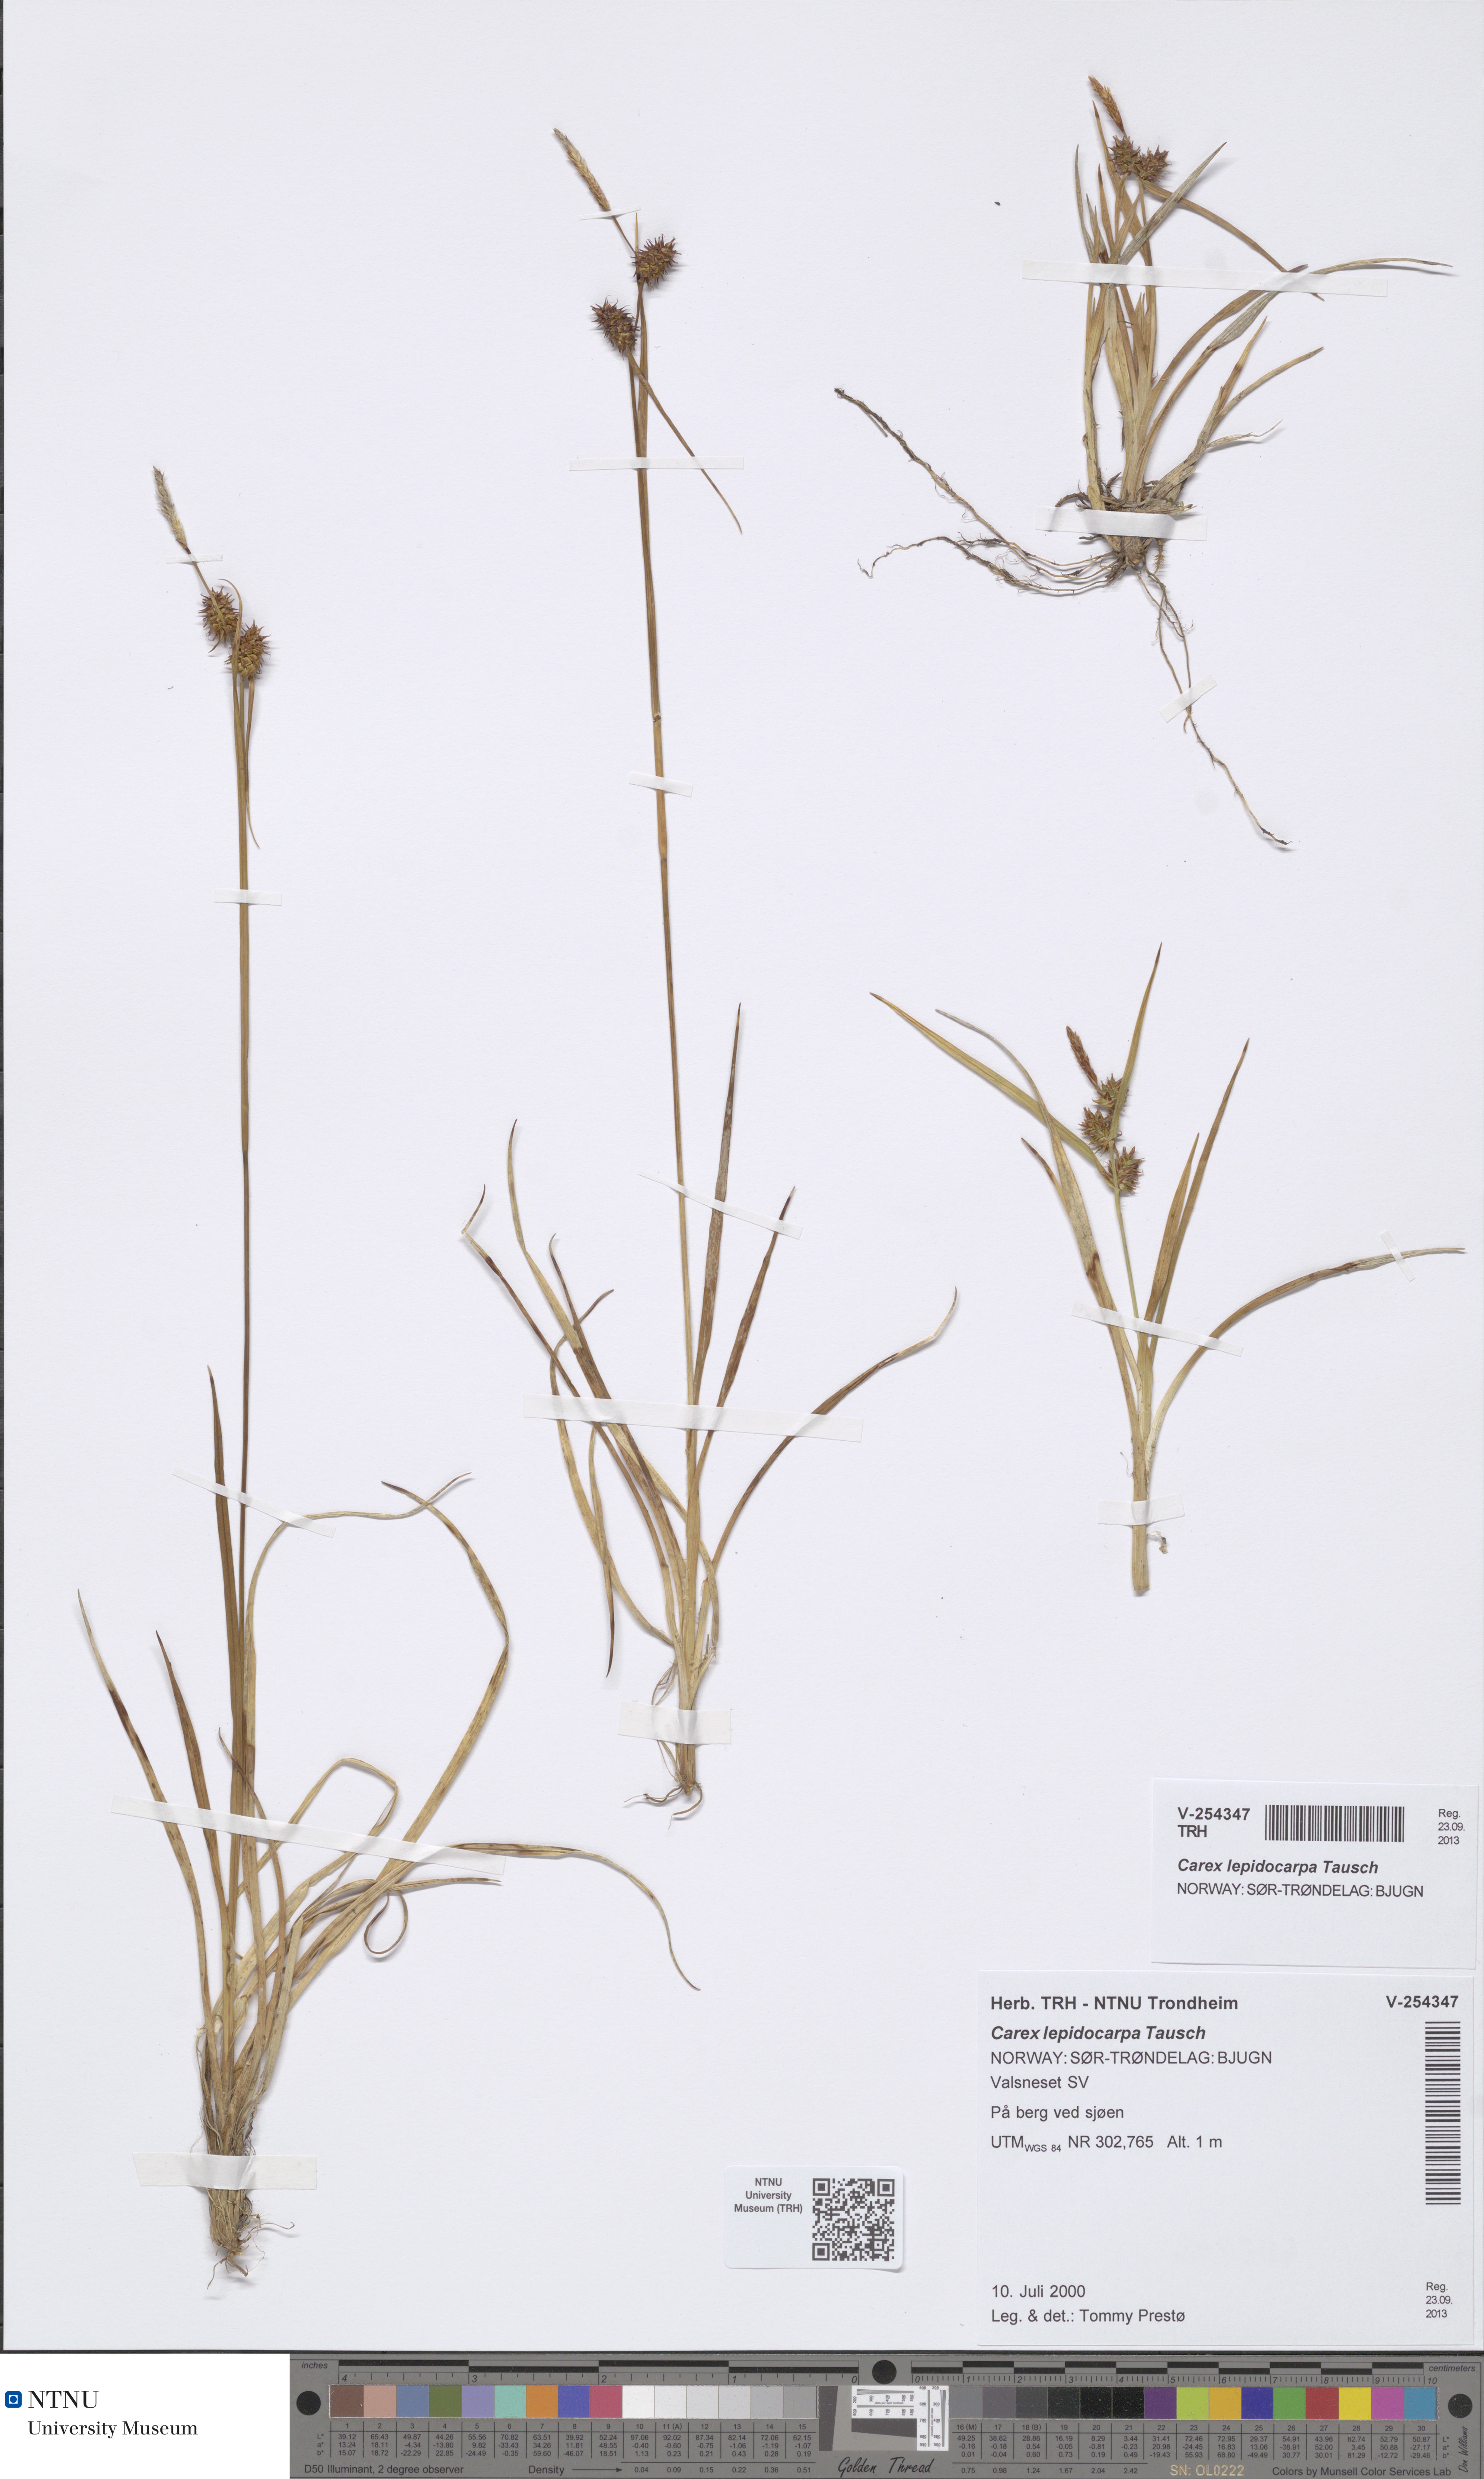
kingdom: Plantae
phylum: Tracheophyta
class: Liliopsida
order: Poales
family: Cyperaceae
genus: Carex
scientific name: Carex lepidocarpa
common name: Long-stalked yellow-sedge
